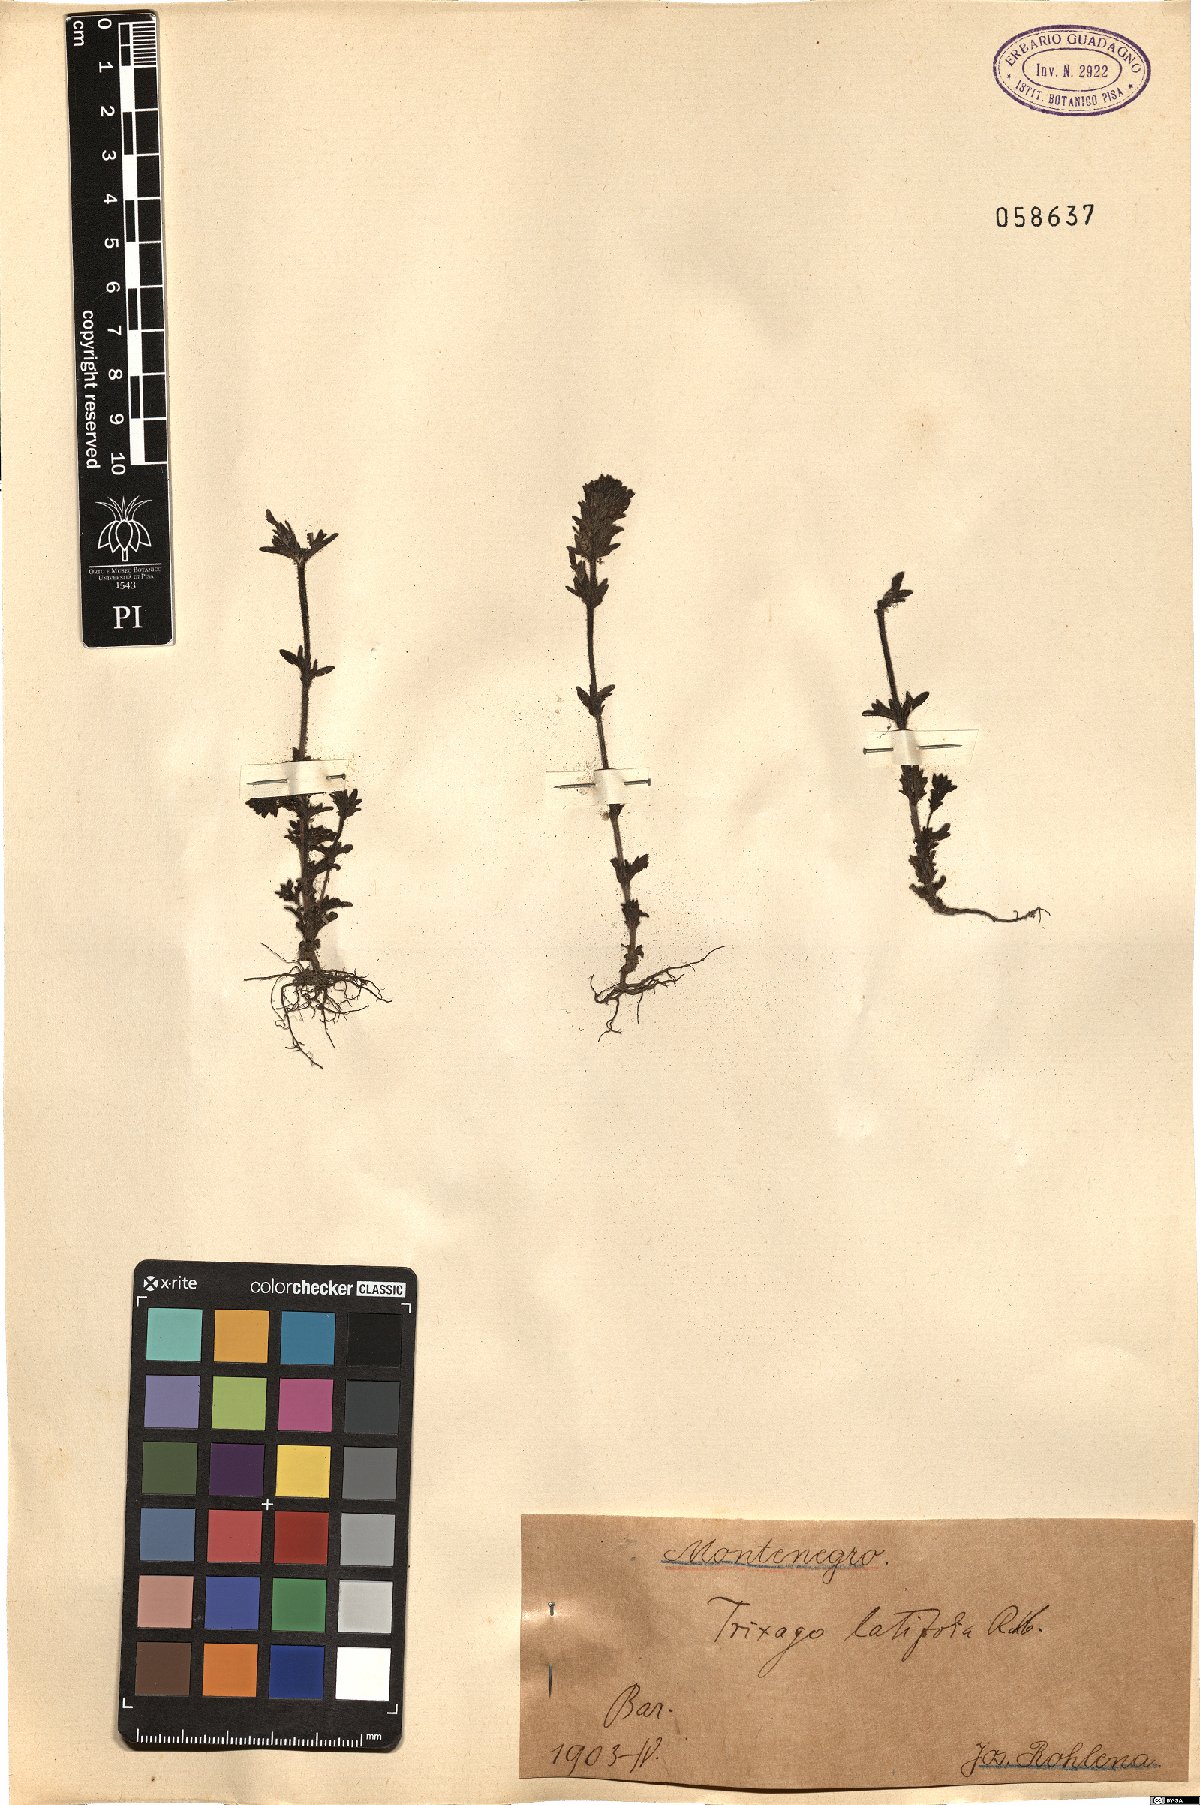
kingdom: Plantae
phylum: Tracheophyta
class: Magnoliopsida
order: Lamiales
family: Orobanchaceae
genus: Parentucellia
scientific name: Parentucellia latifolia
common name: Broadleaf glandweed
